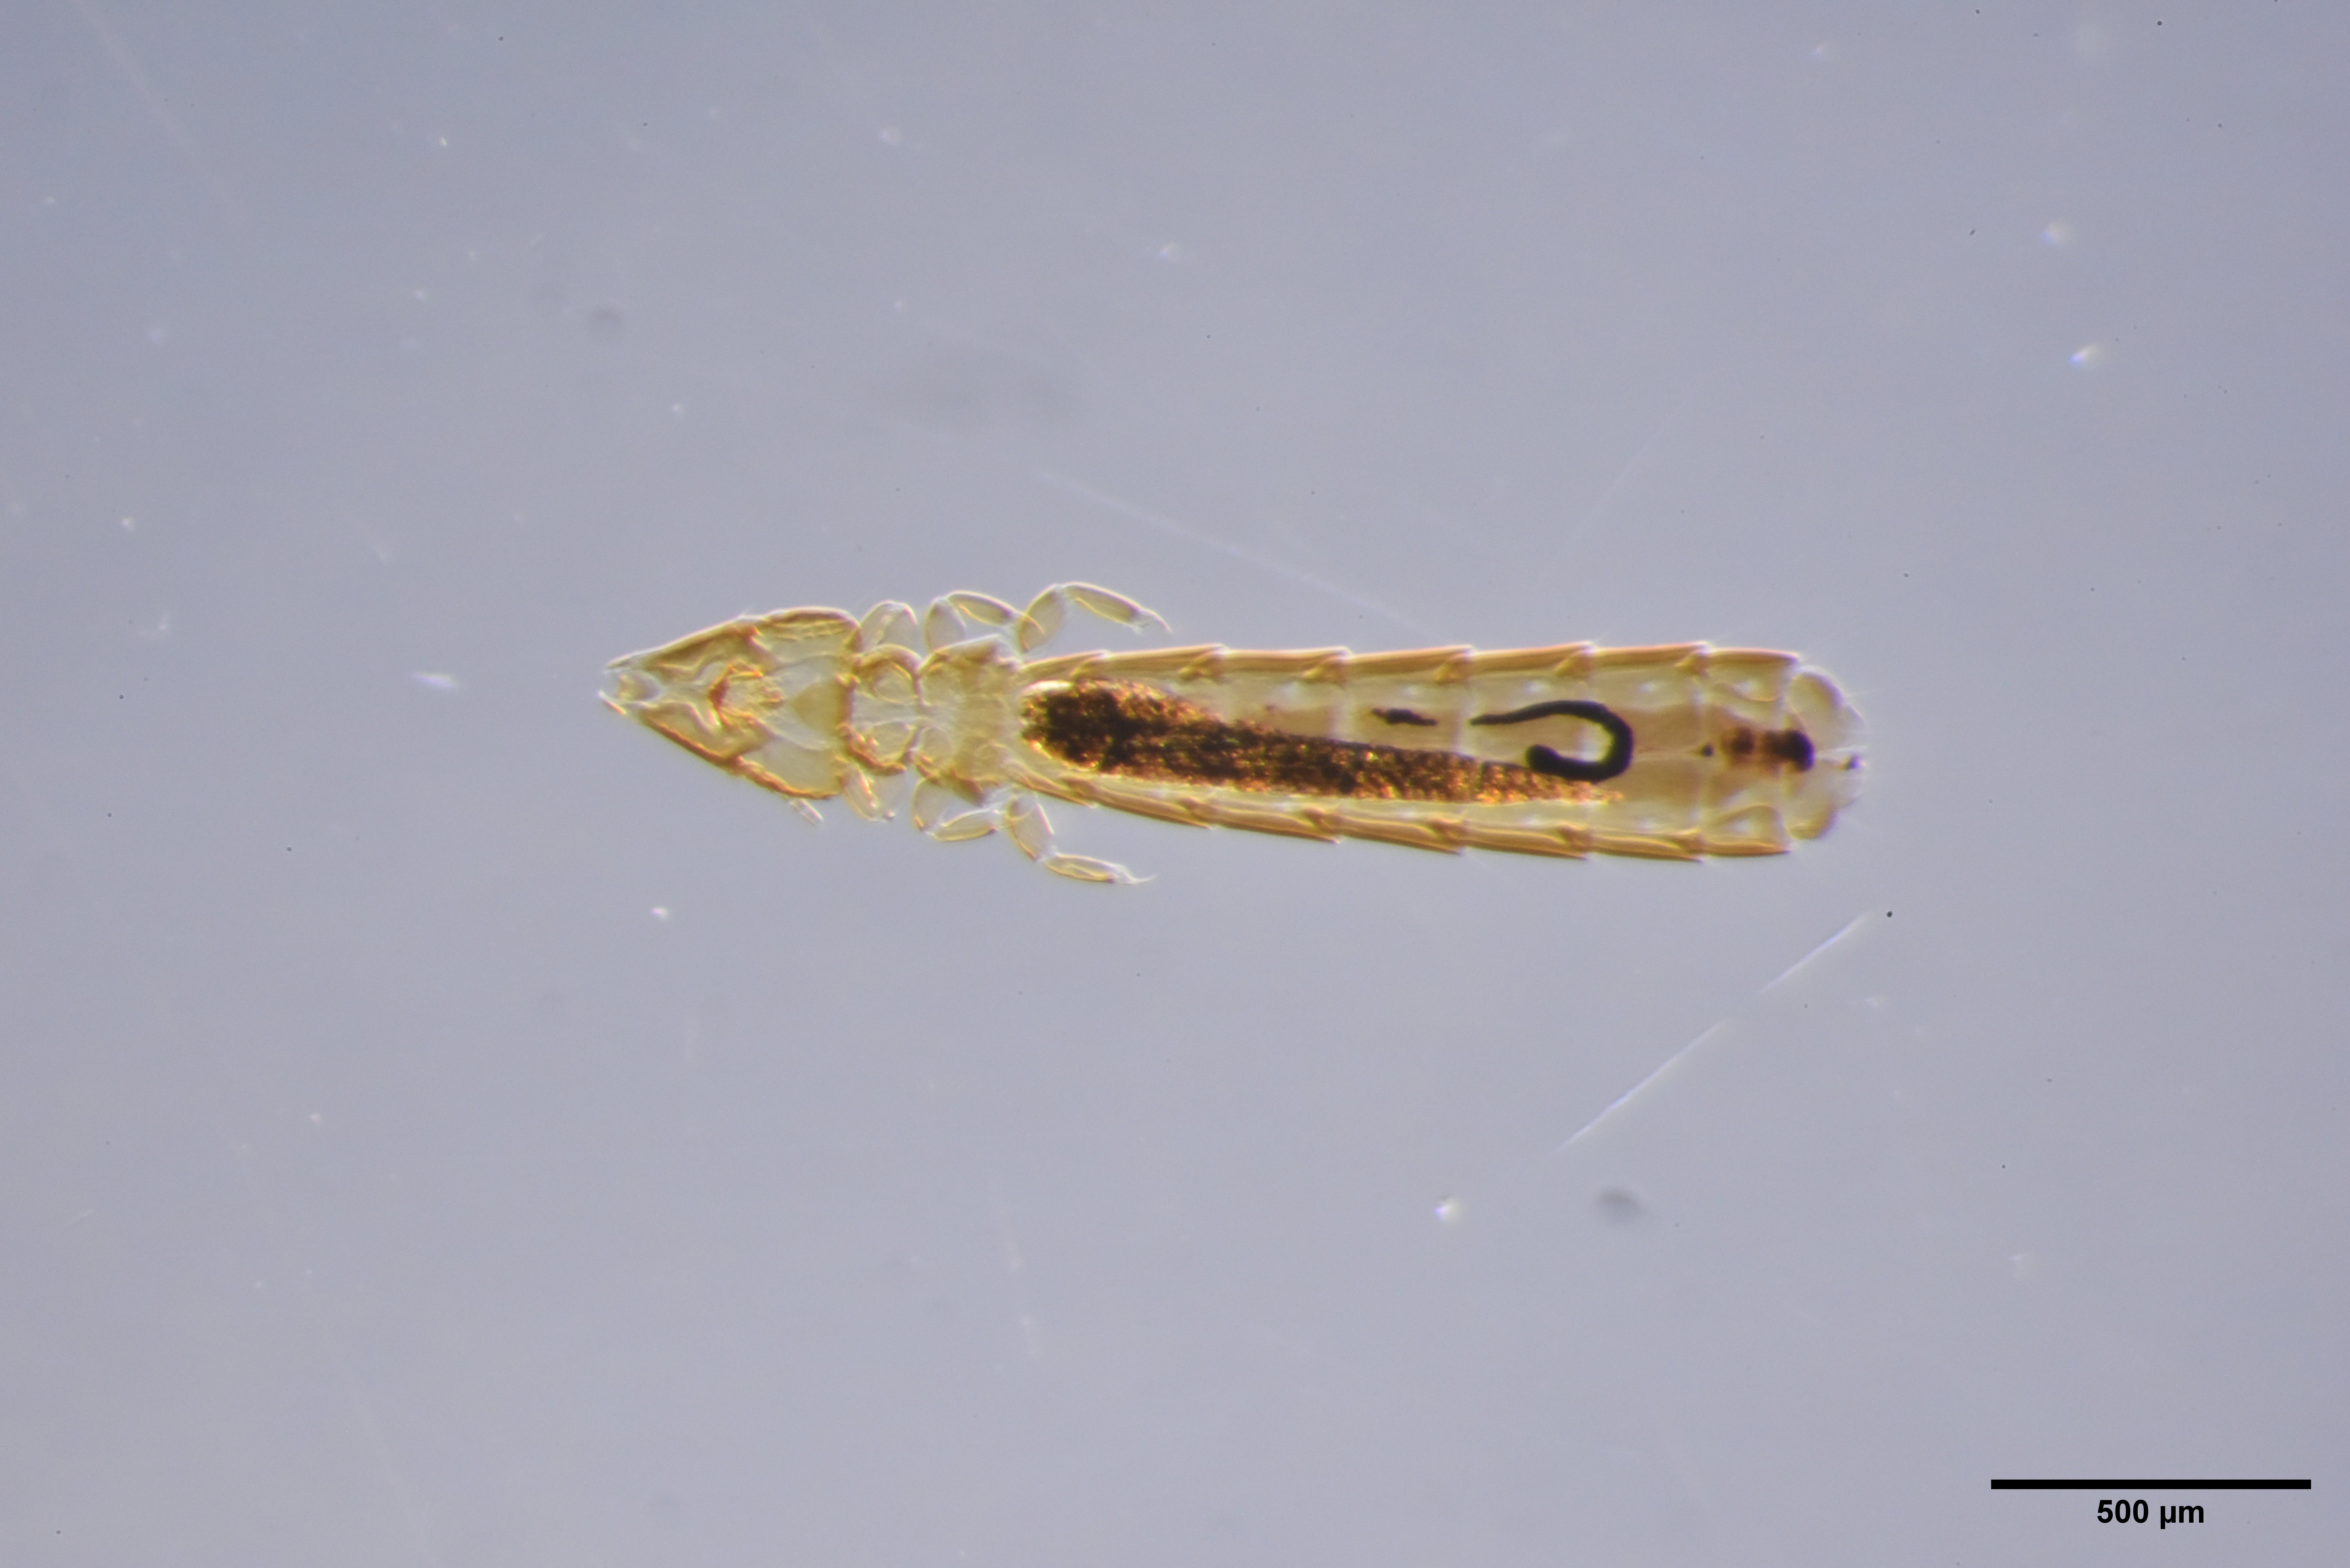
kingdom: Animalia
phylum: Arthropoda
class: Insecta
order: Psocodea
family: Philopteridae
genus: Brueelia
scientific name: Brueelia gracilis
